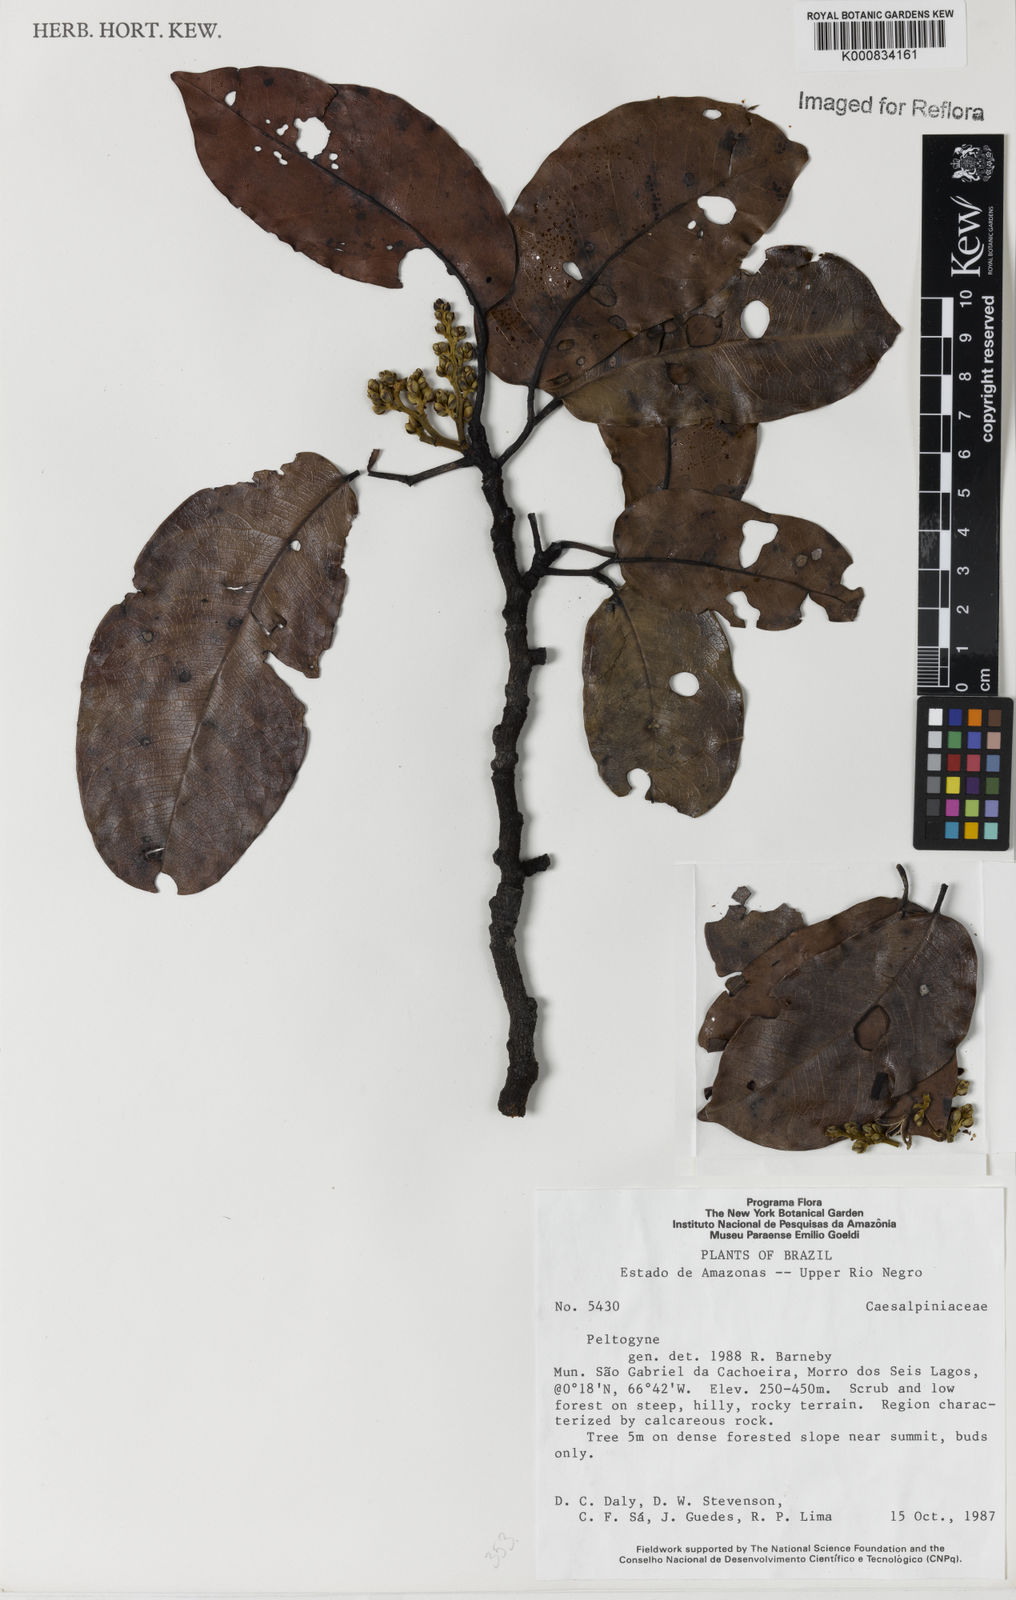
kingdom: Plantae
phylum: Tracheophyta
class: Magnoliopsida
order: Fabales
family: Fabaceae
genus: Peltogyne
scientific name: Peltogyne
